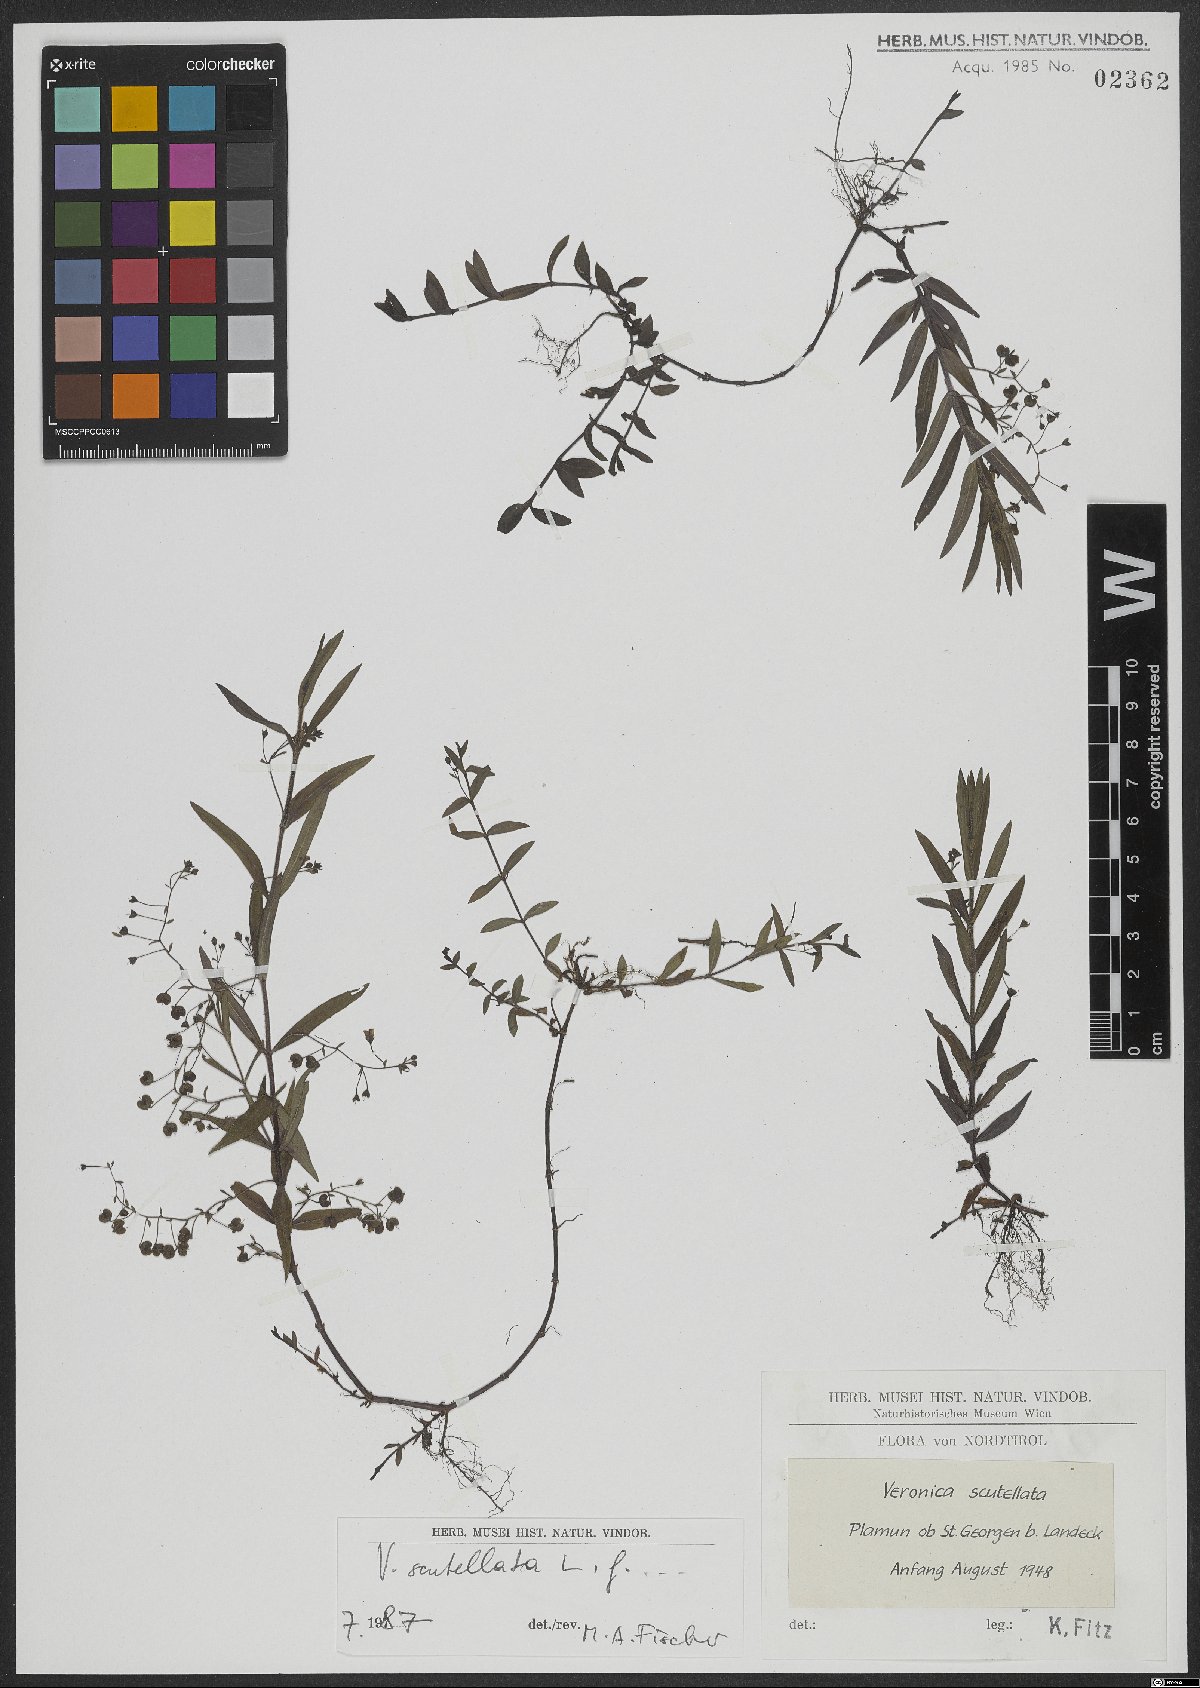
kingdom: Plantae
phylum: Tracheophyta
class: Magnoliopsida
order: Lamiales
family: Plantaginaceae
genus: Veronica
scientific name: Veronica scutellata
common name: Marsh speedwell
